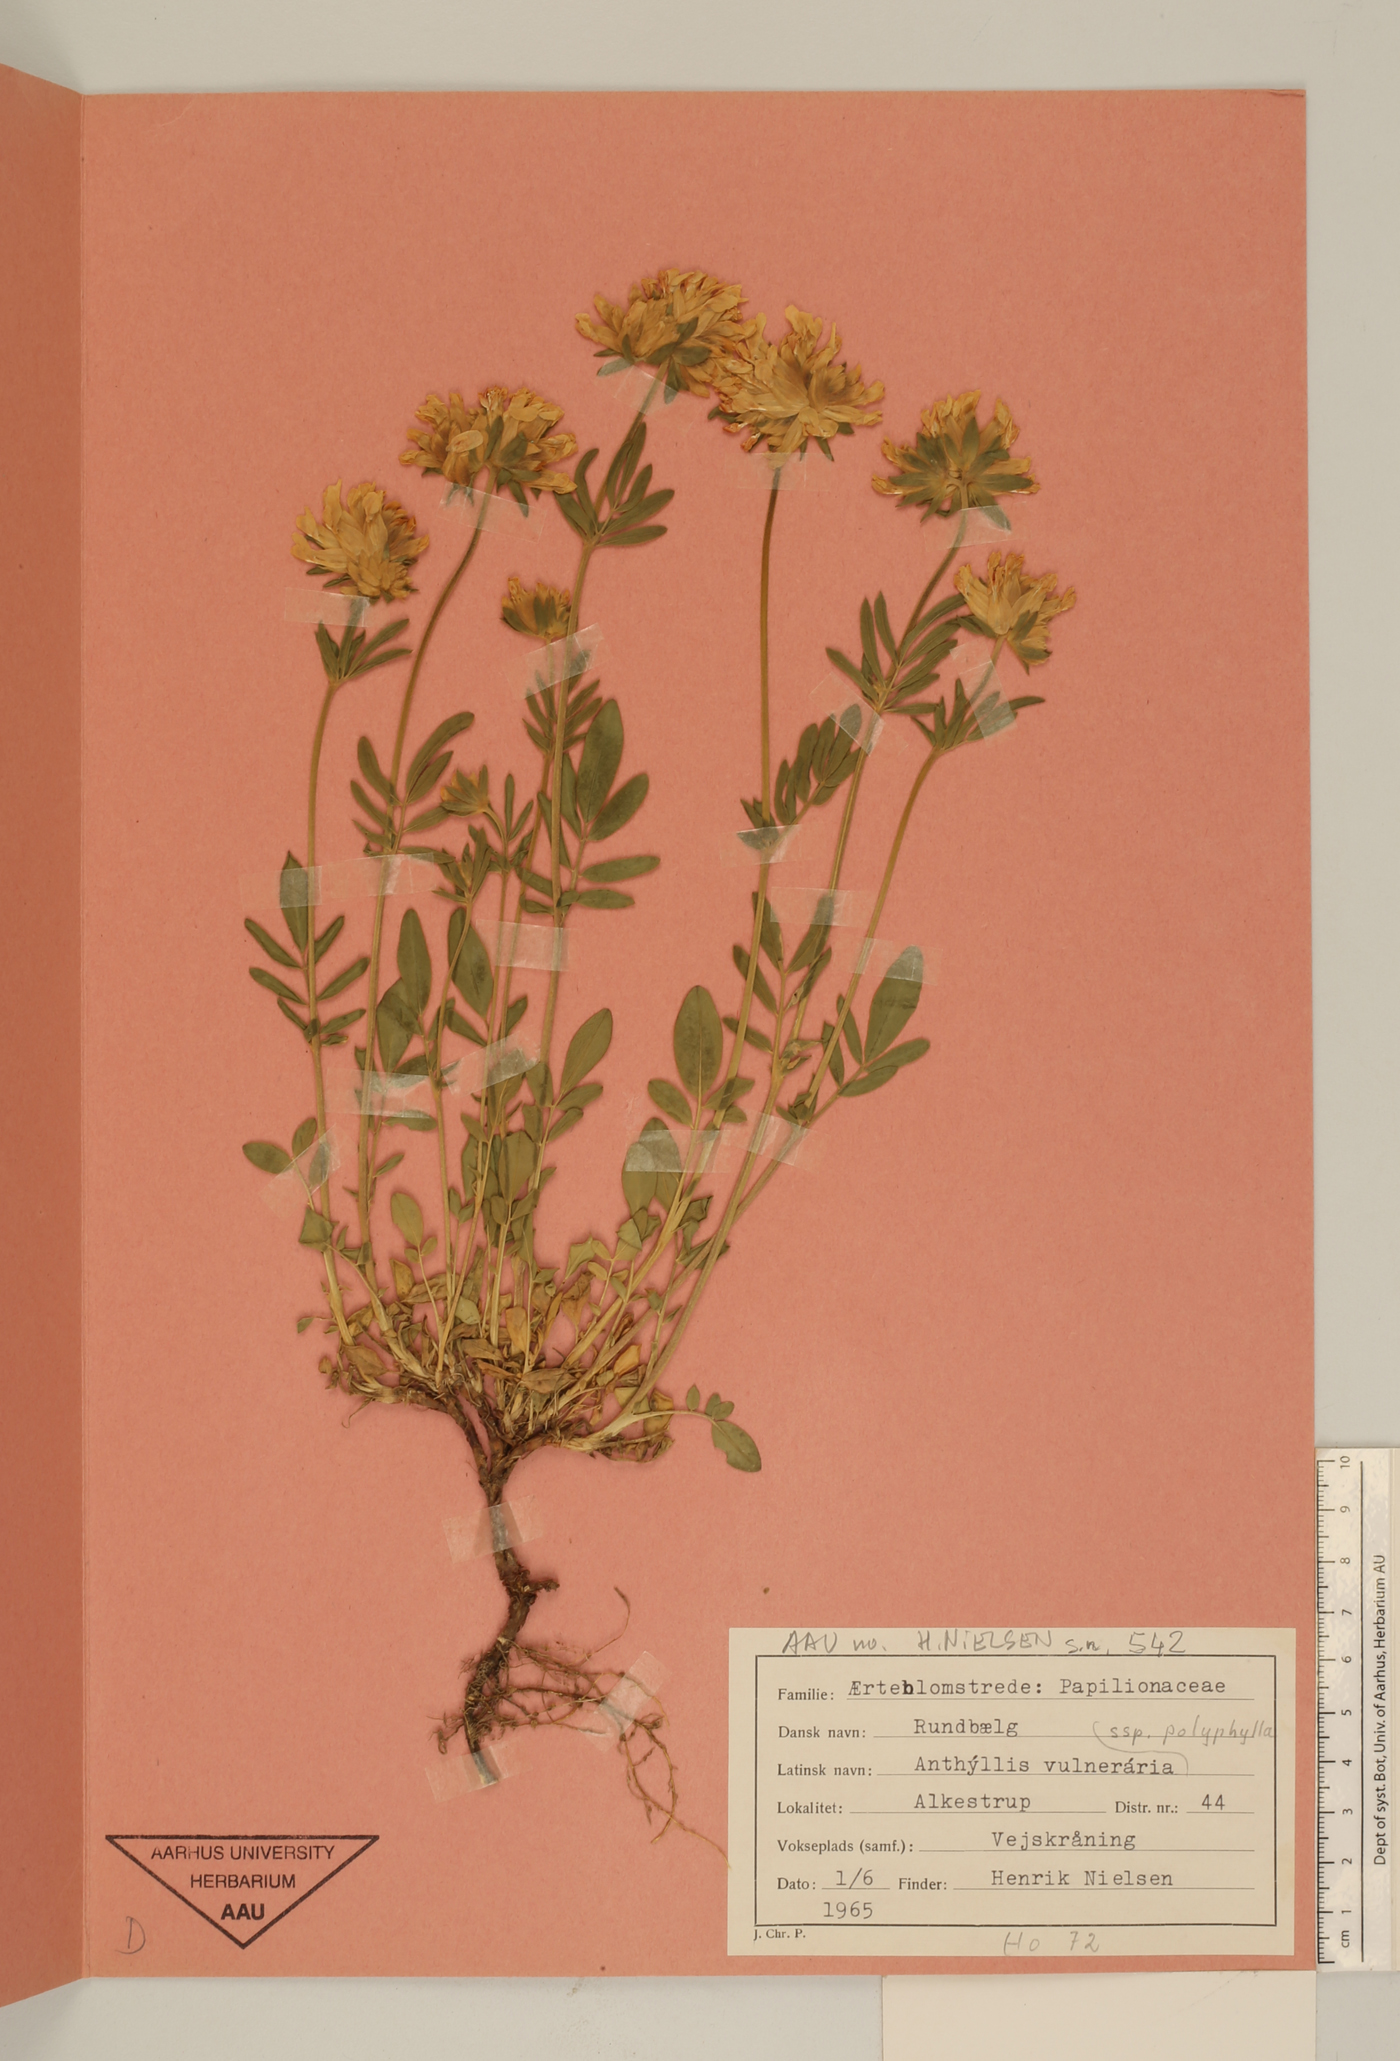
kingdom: Plantae
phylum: Tracheophyta
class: Magnoliopsida
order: Fabales
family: Fabaceae
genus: Anthyllis
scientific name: Anthyllis vulneraria
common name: Kidney vetch
